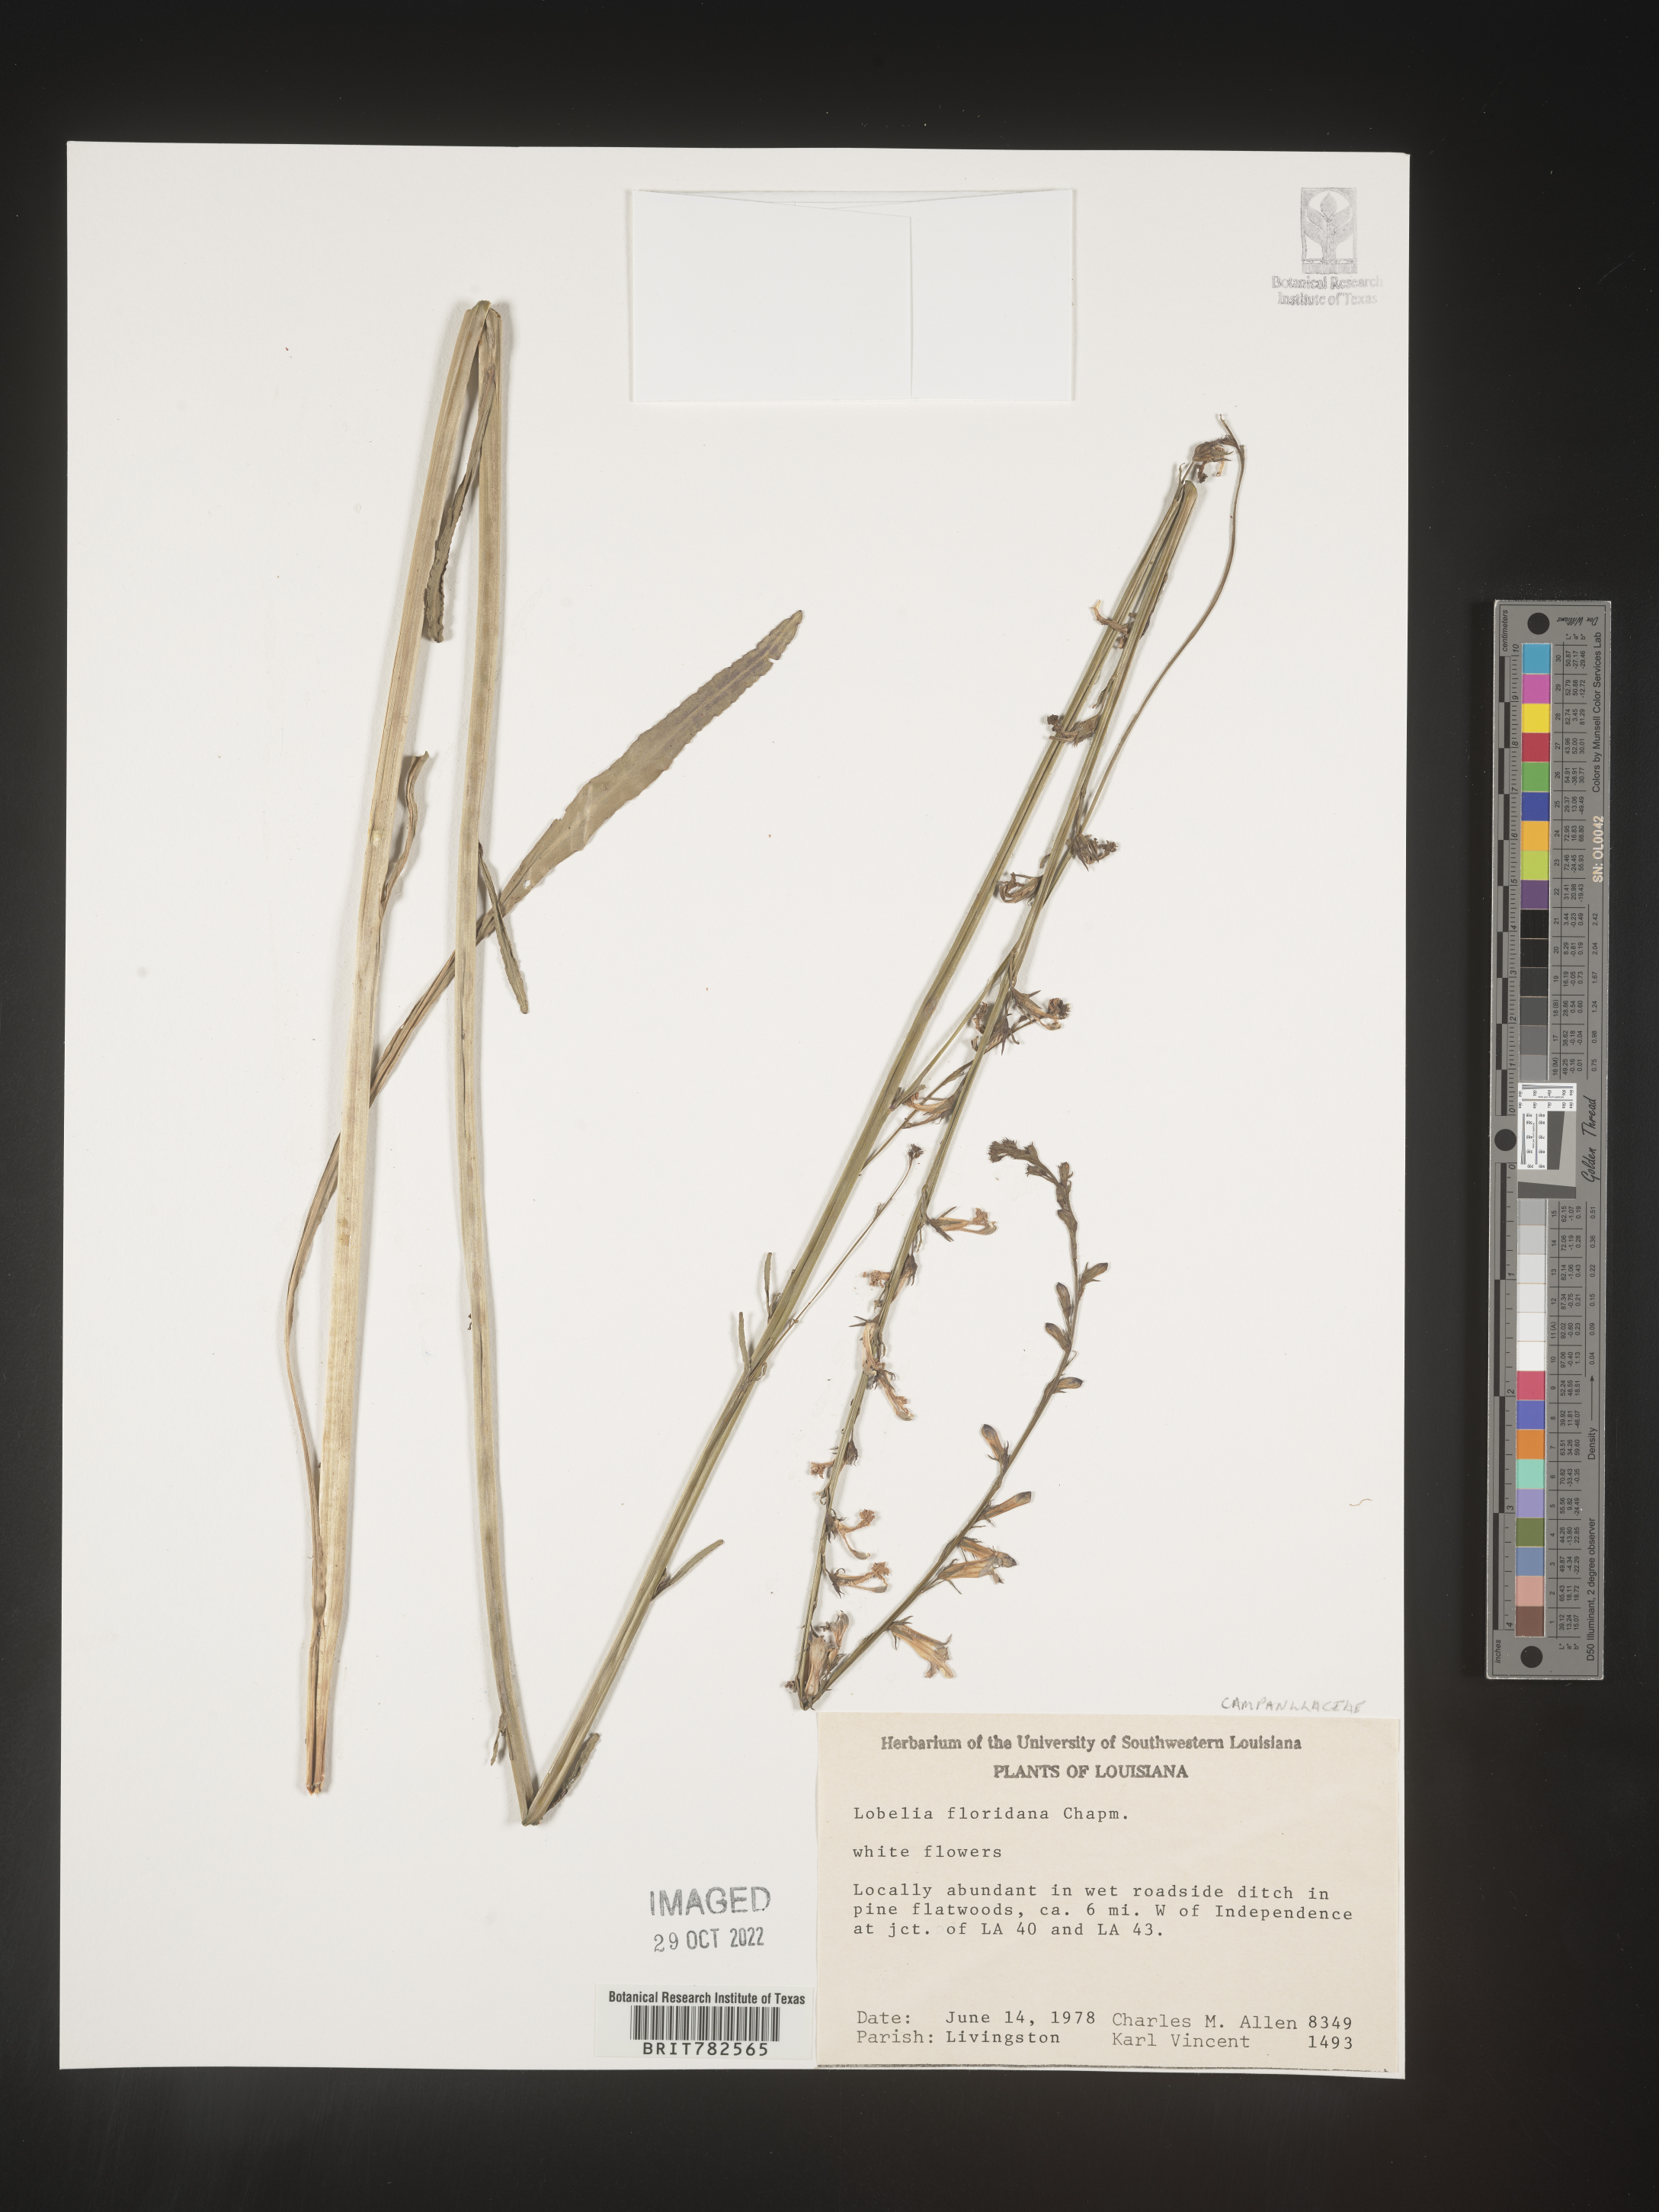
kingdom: Plantae
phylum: Tracheophyta
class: Magnoliopsida
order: Asterales
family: Campanulaceae
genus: Lobelia
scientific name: Lobelia
